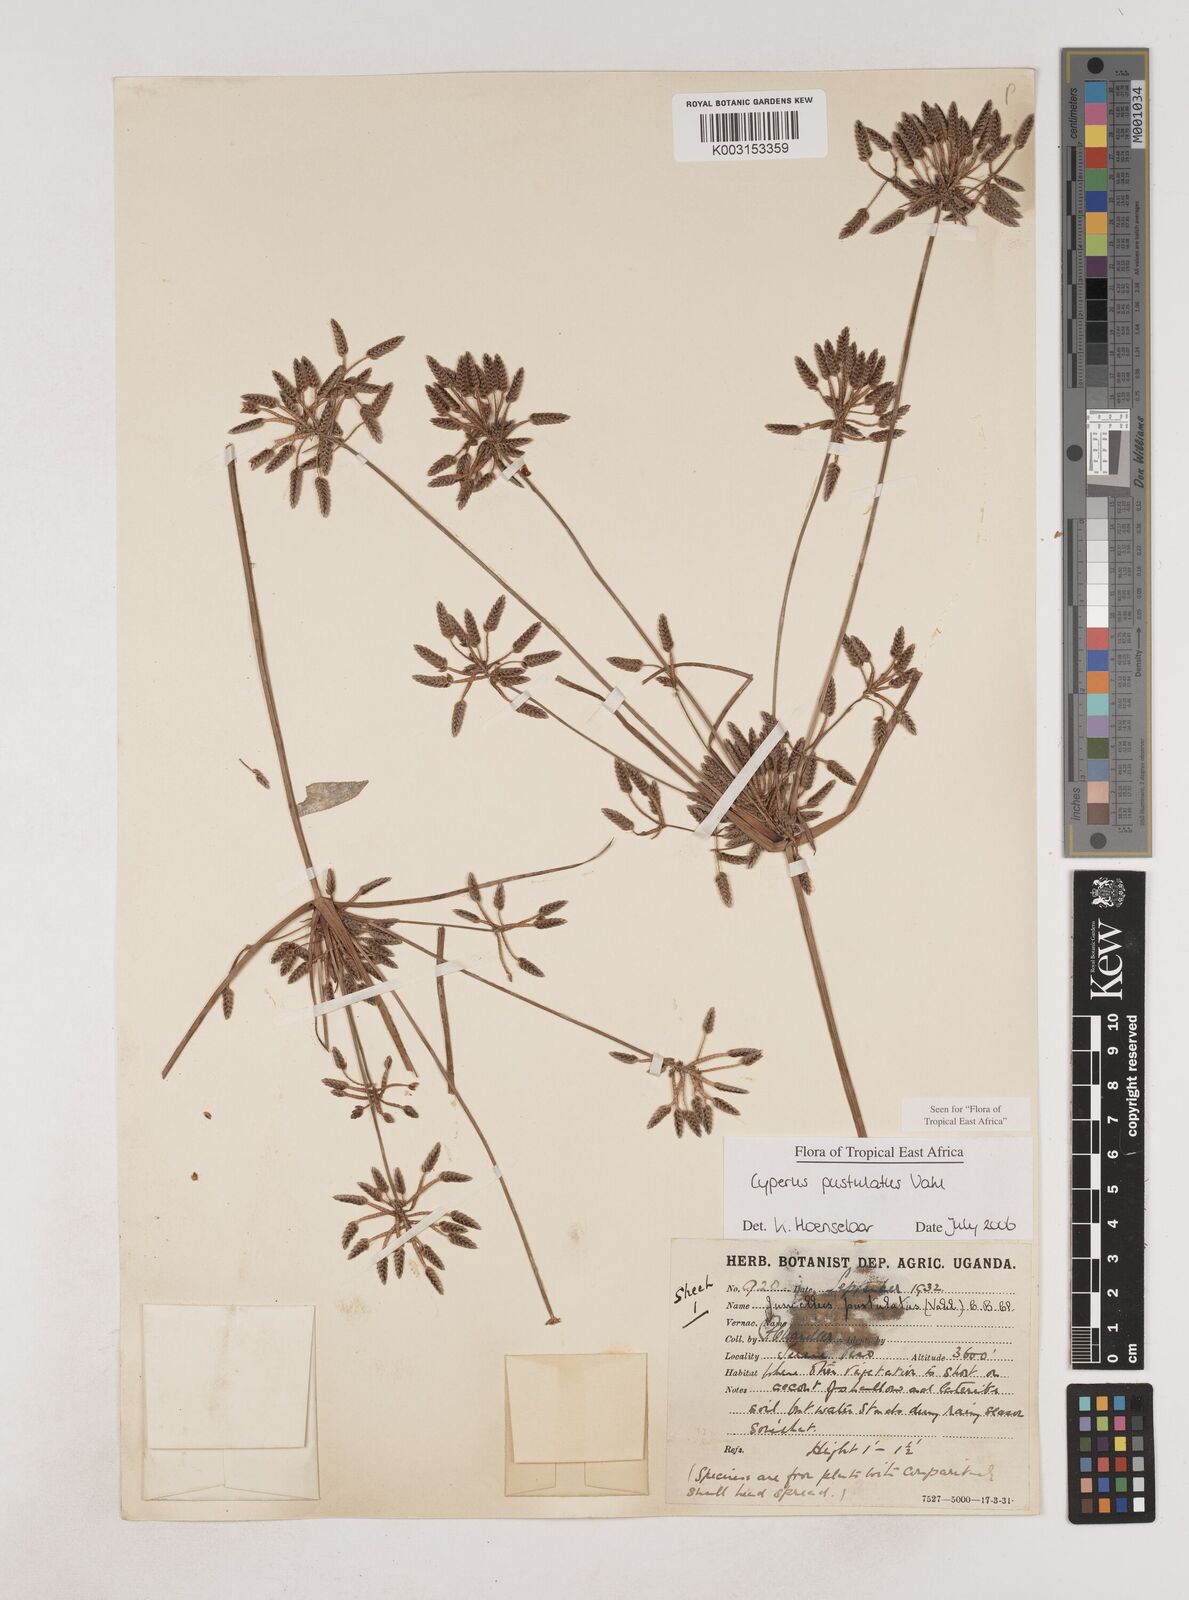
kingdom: Plantae
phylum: Tracheophyta
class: Liliopsida
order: Poales
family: Cyperaceae
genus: Cyperus
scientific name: Cyperus pustulatus
